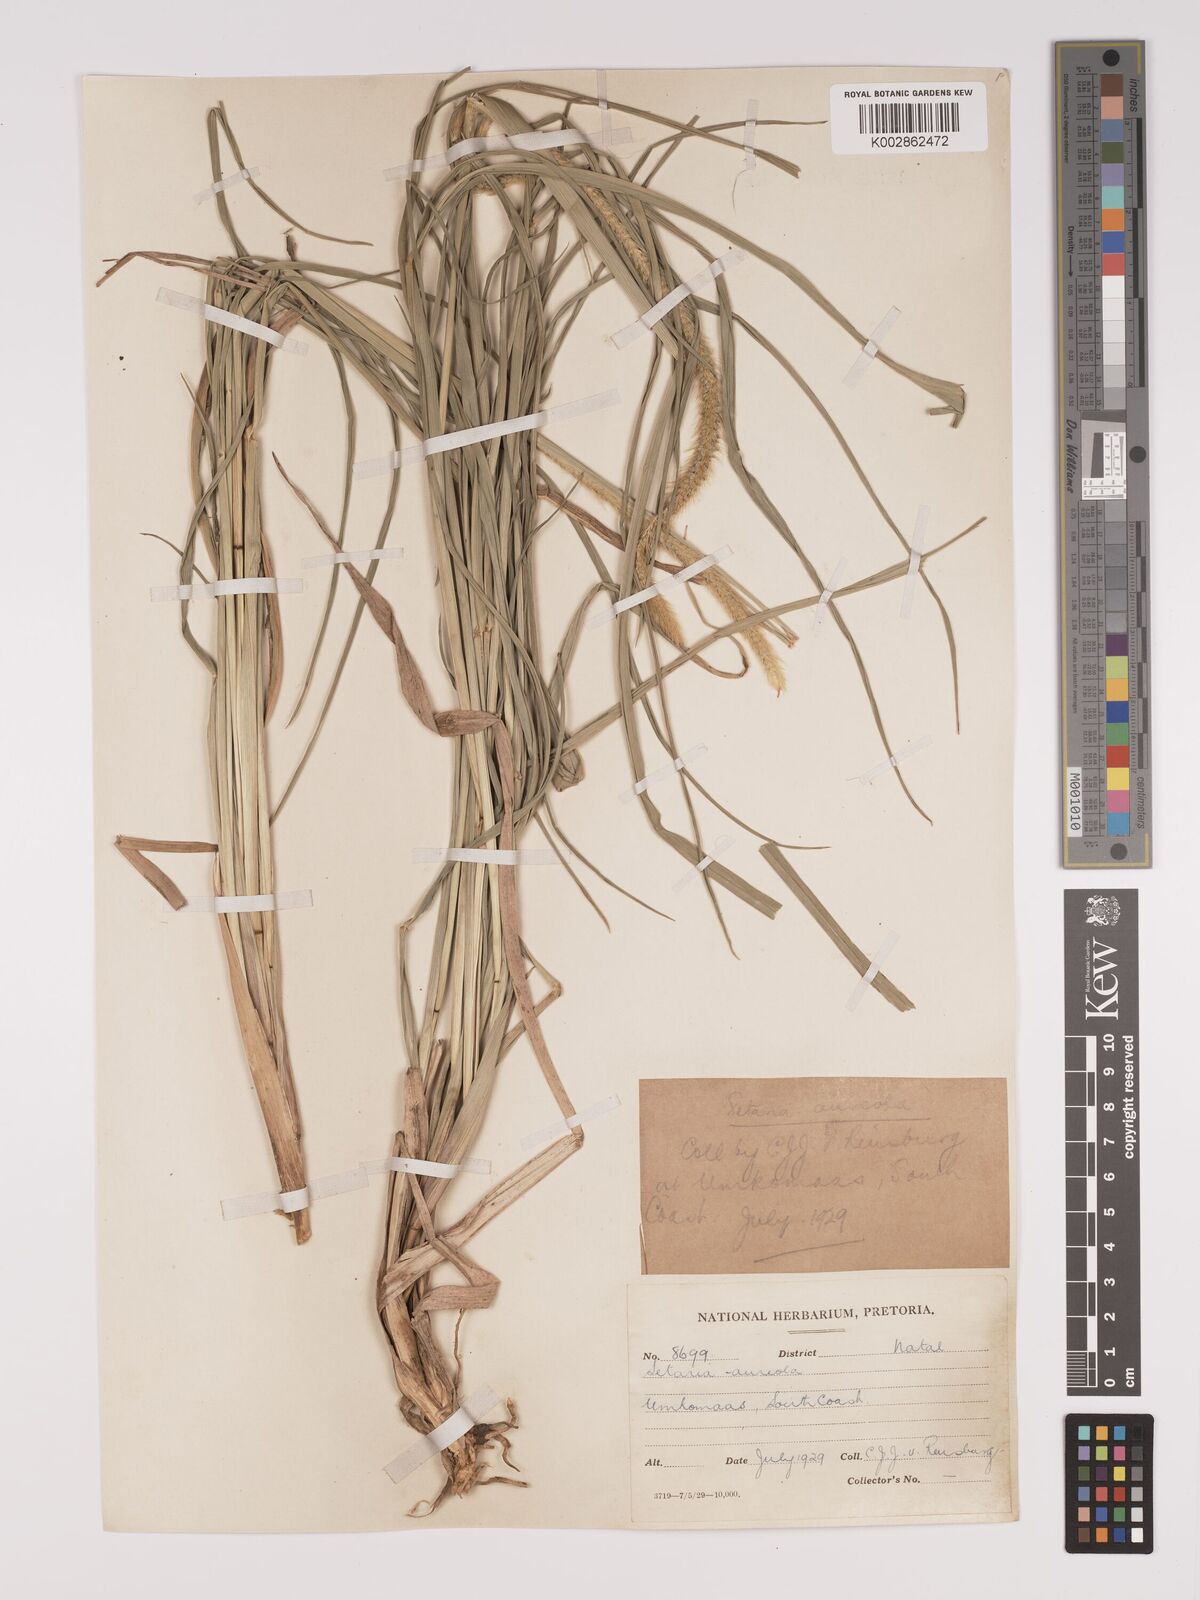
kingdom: Plantae
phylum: Tracheophyta
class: Liliopsida
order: Poales
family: Poaceae
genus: Setaria
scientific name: Setaria sphacelata
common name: African bristlegrass
